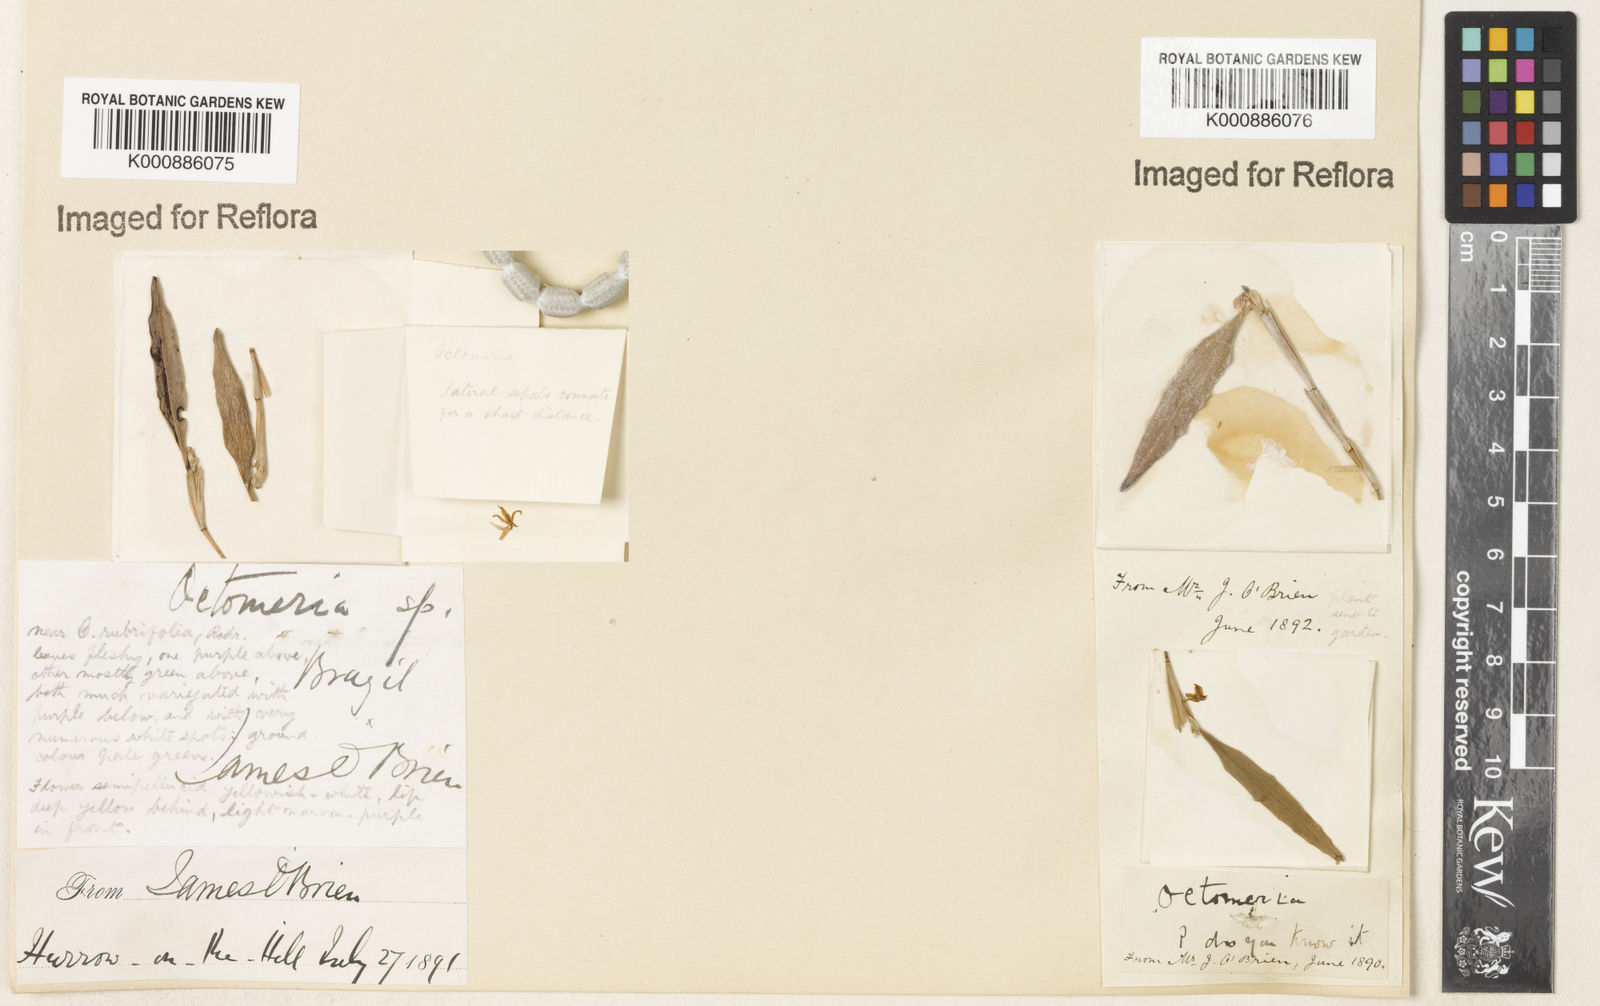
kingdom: Plantae
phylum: Tracheophyta
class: Liliopsida
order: Asparagales
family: Orchidaceae
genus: Octomeria
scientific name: Octomeria
